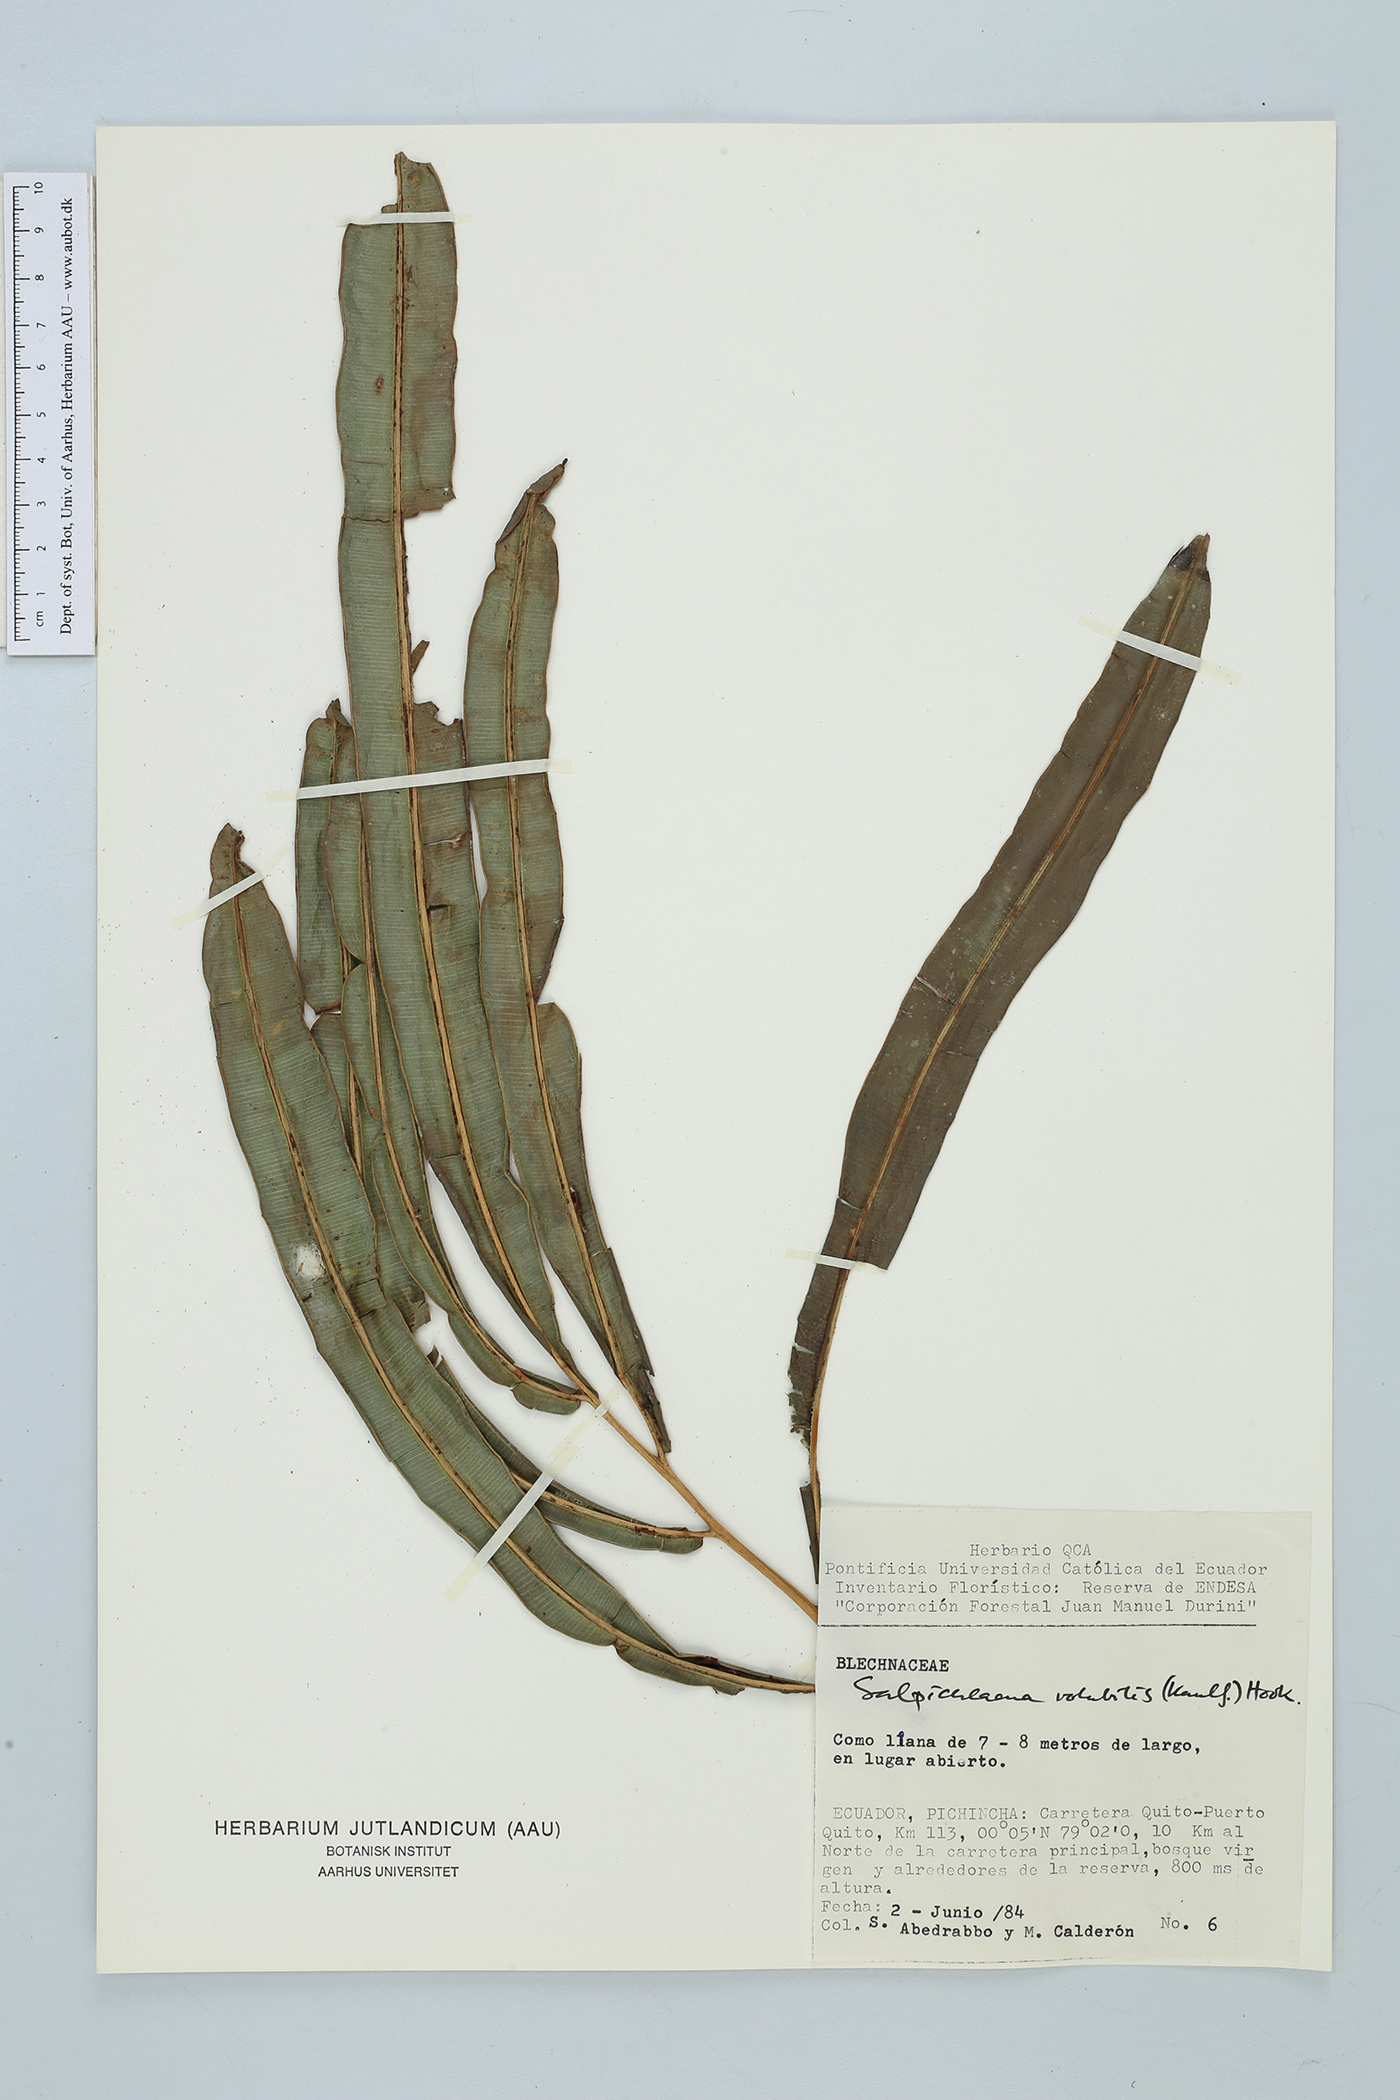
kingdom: Plantae
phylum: Tracheophyta
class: Polypodiopsida
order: Polypodiales
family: Blechnaceae
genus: Salpichlaena
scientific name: Salpichlaena volubilis
